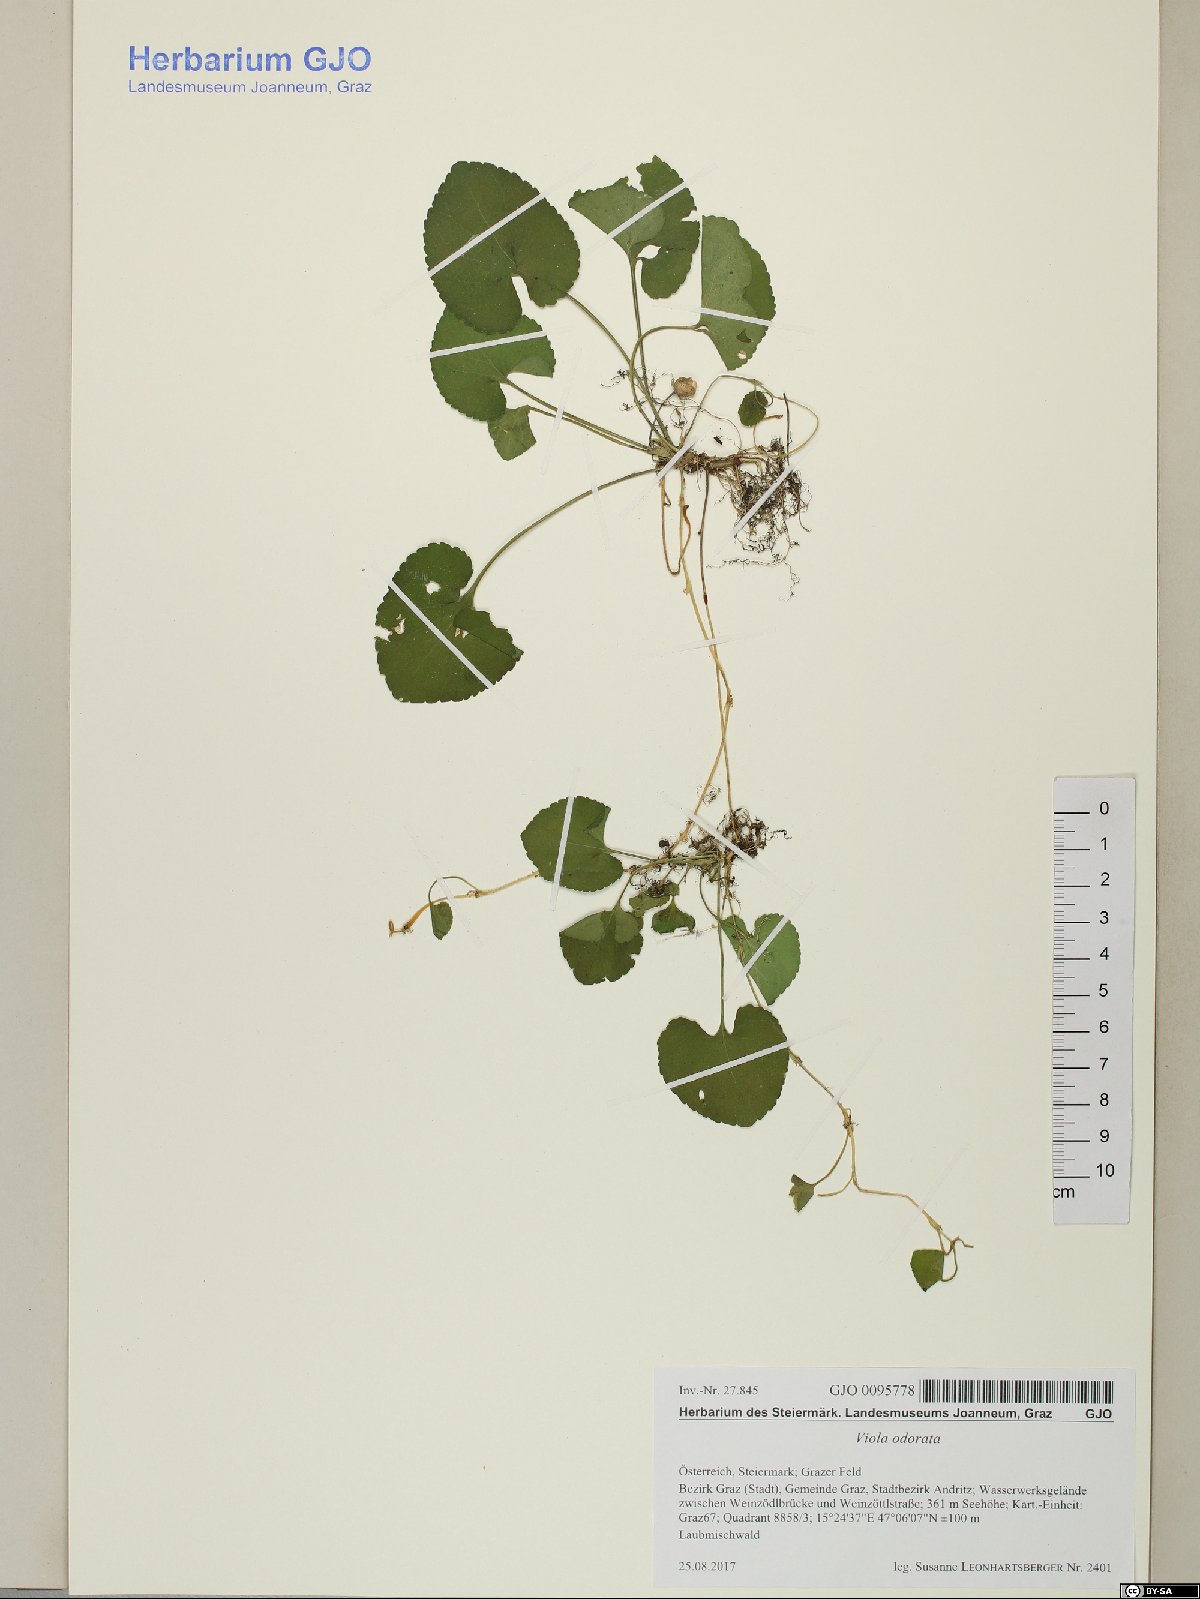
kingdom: Plantae
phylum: Tracheophyta
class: Magnoliopsida
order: Malpighiales
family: Violaceae
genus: Viola
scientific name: Viola odorata
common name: Sweet violet
